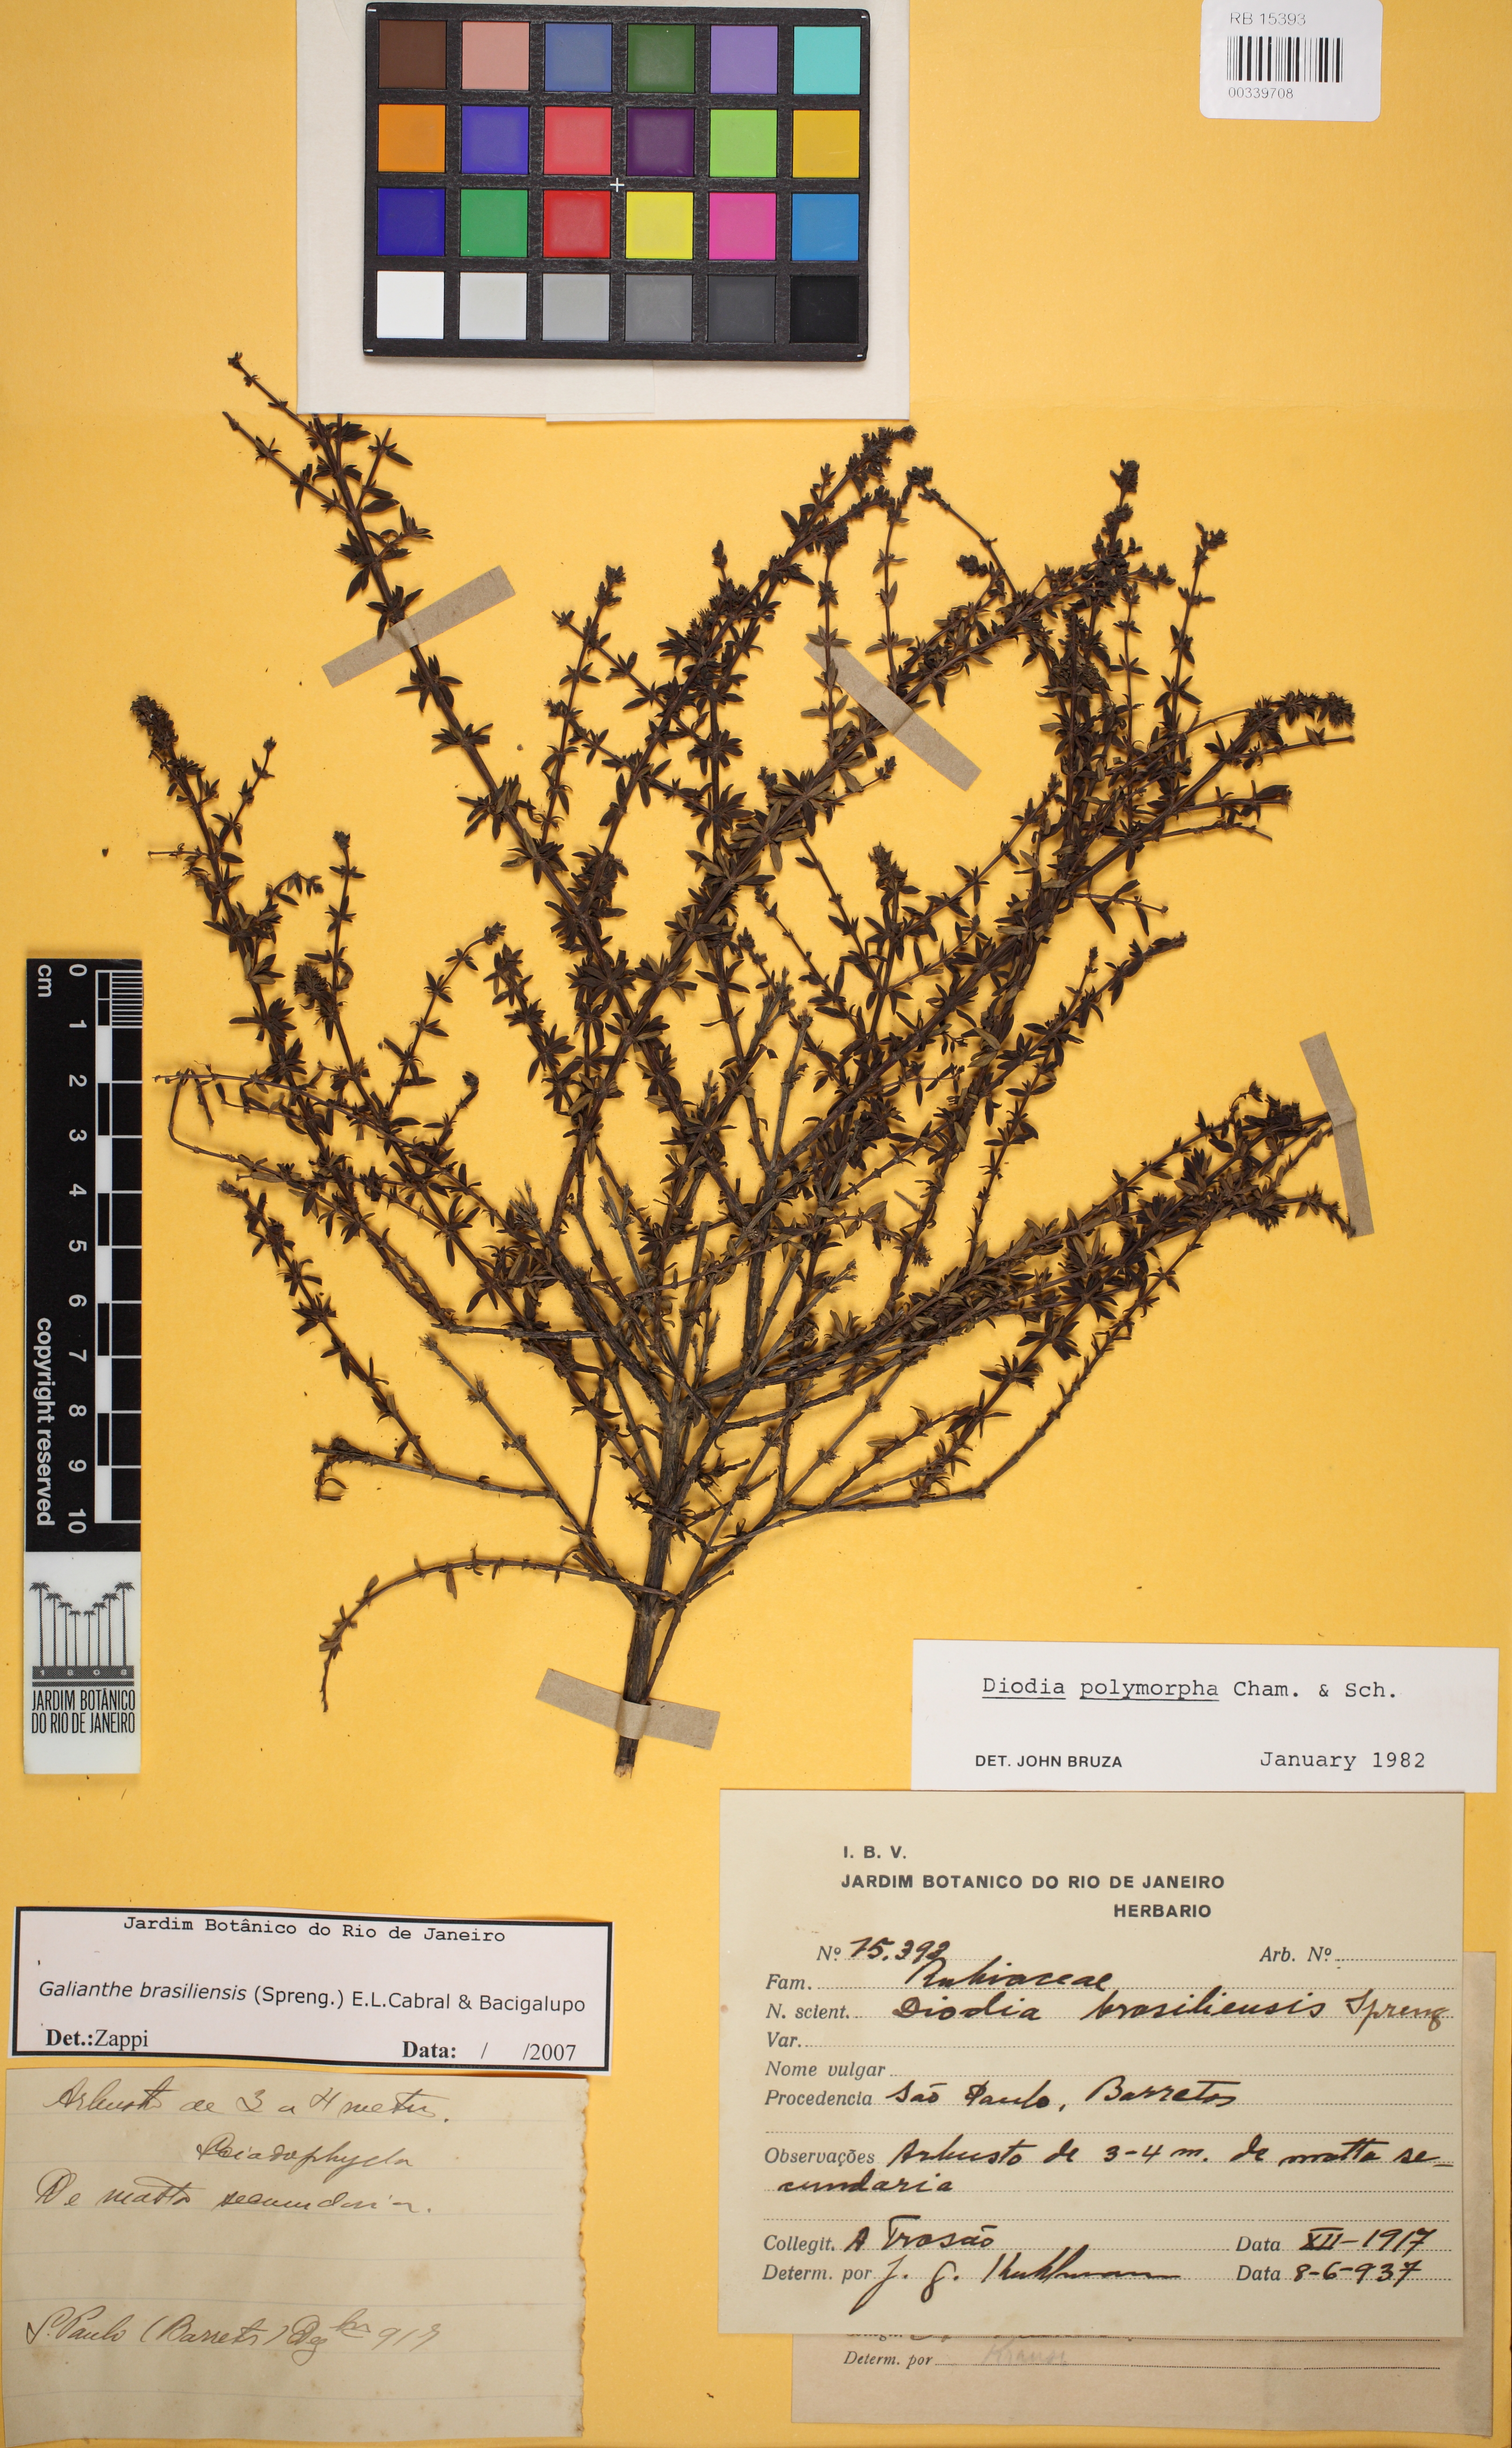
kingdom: Plantae
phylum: Tracheophyta
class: Magnoliopsida
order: Gentianales
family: Rubiaceae
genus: Galianthe
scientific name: Galianthe brasiliensis
